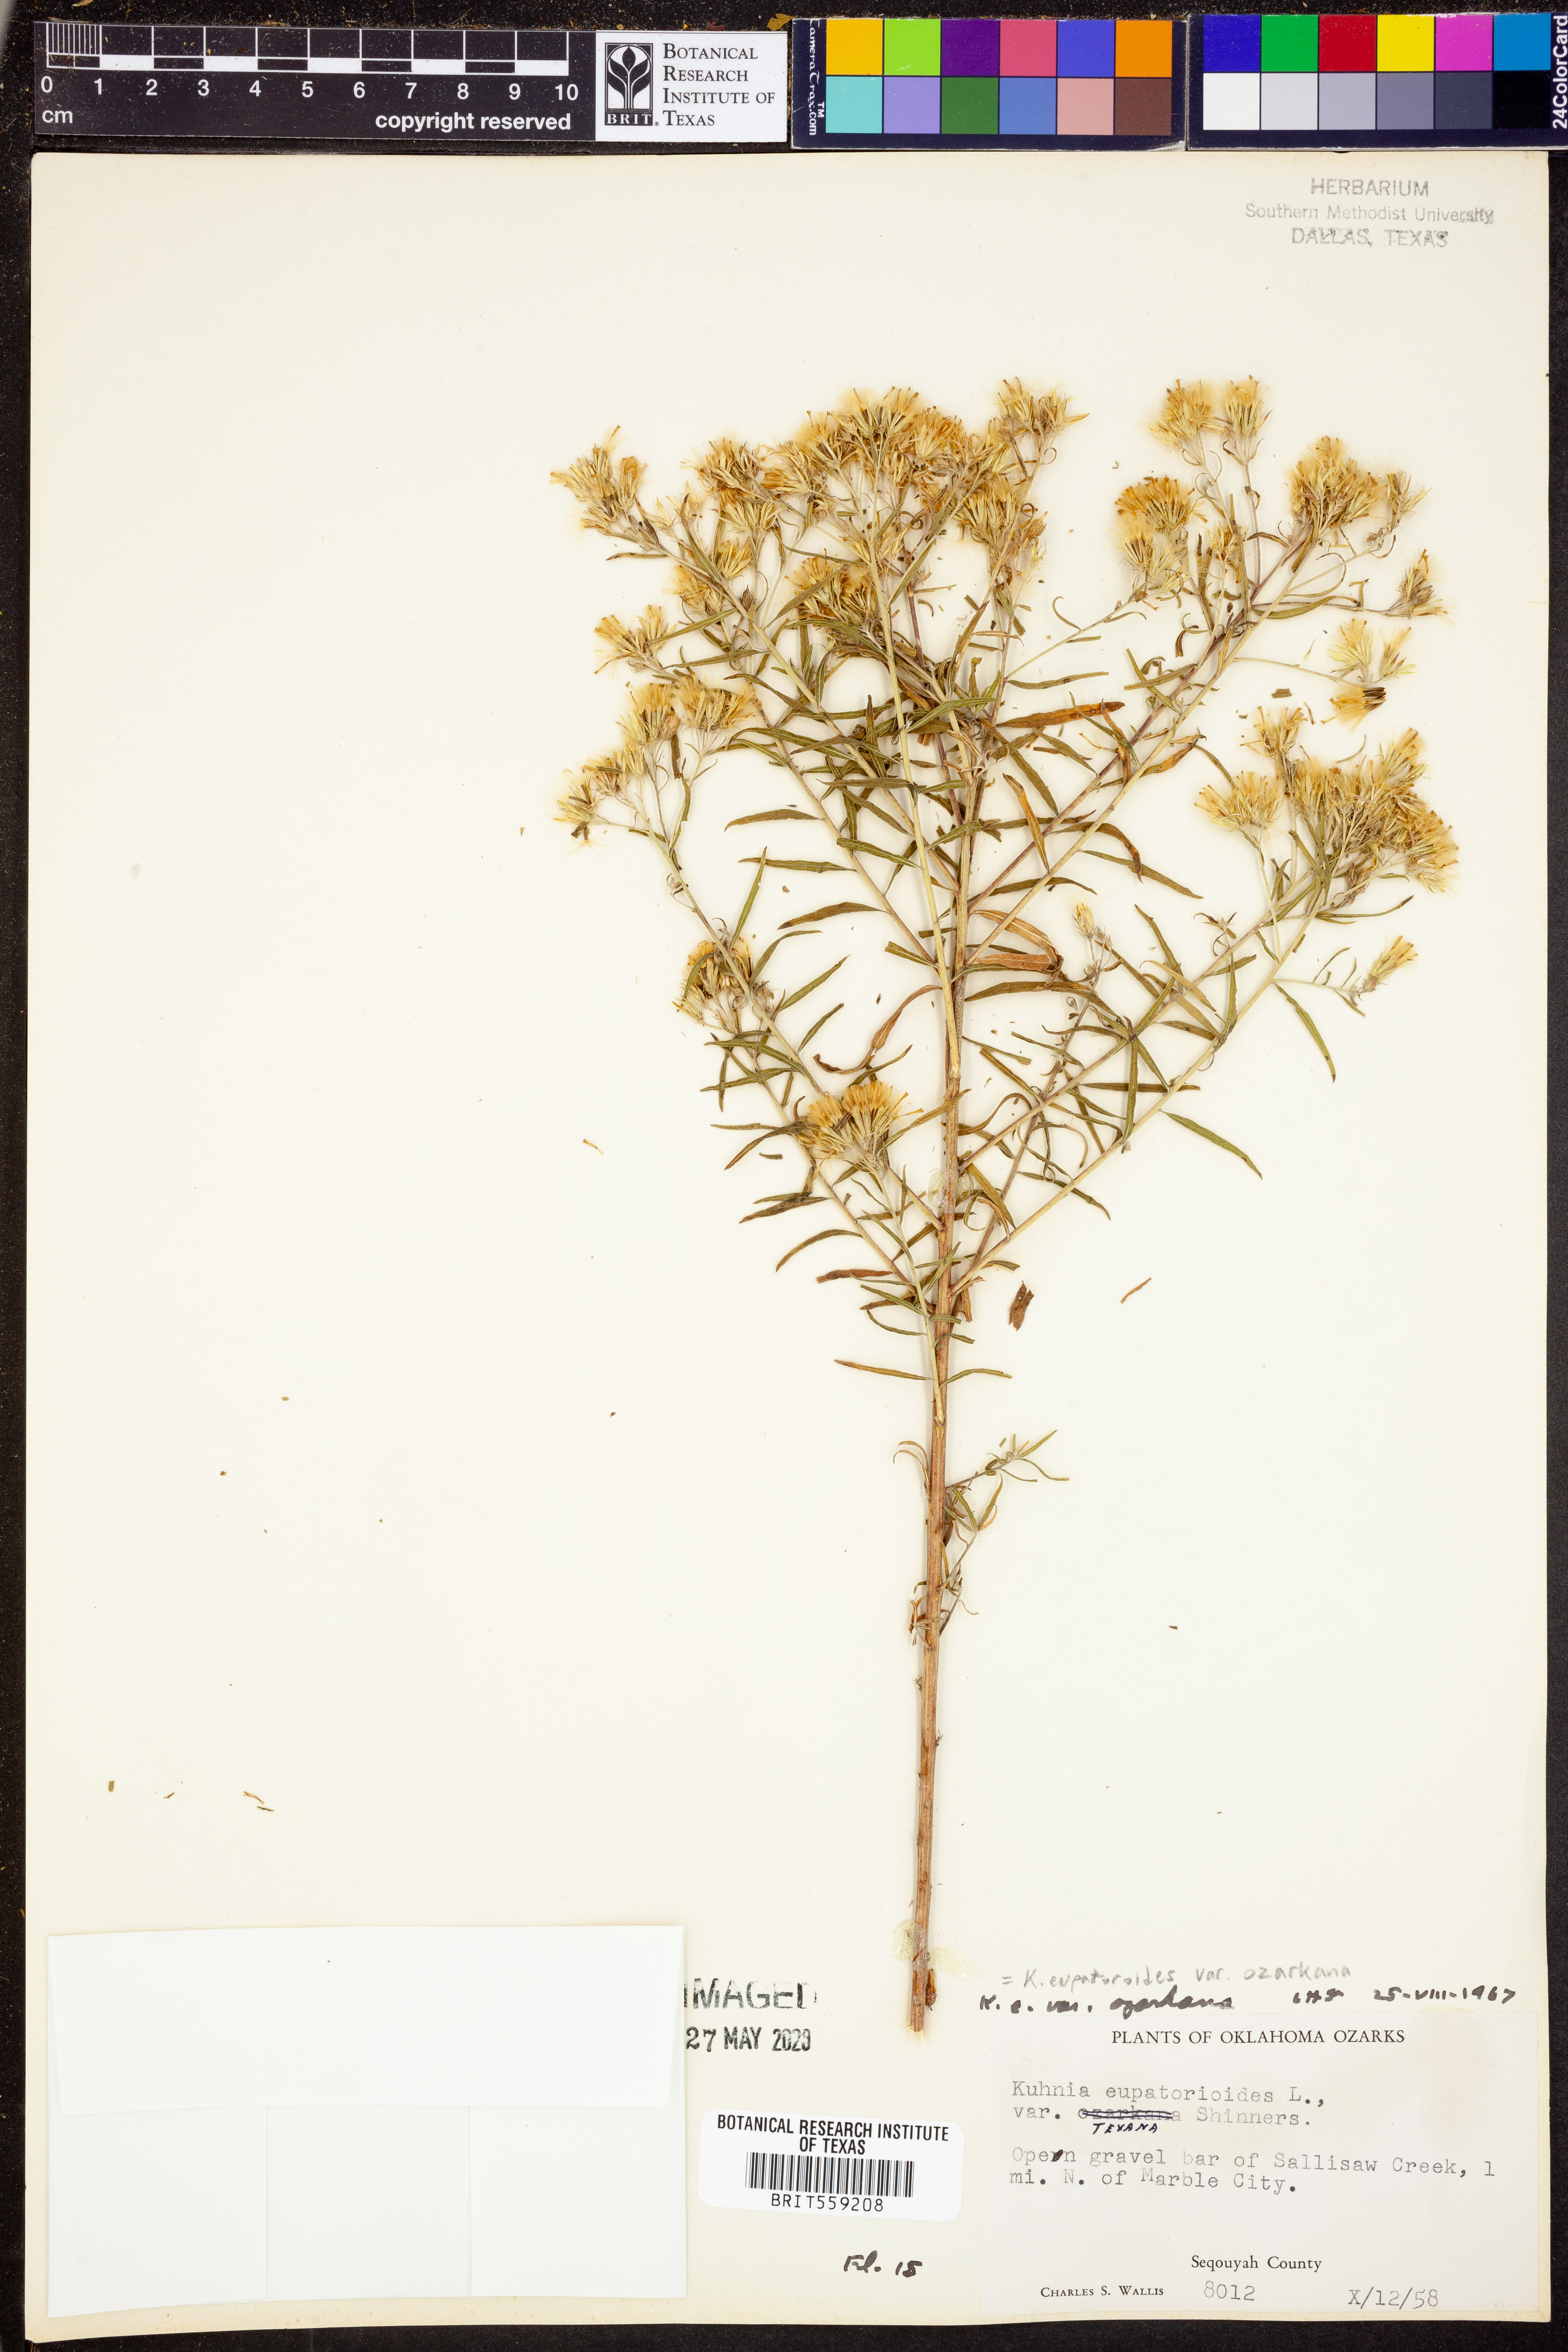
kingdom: Plantae
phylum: Tracheophyta
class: Magnoliopsida
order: Asterales
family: Asteraceae
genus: Brickellia
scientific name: Brickellia ozarkana
